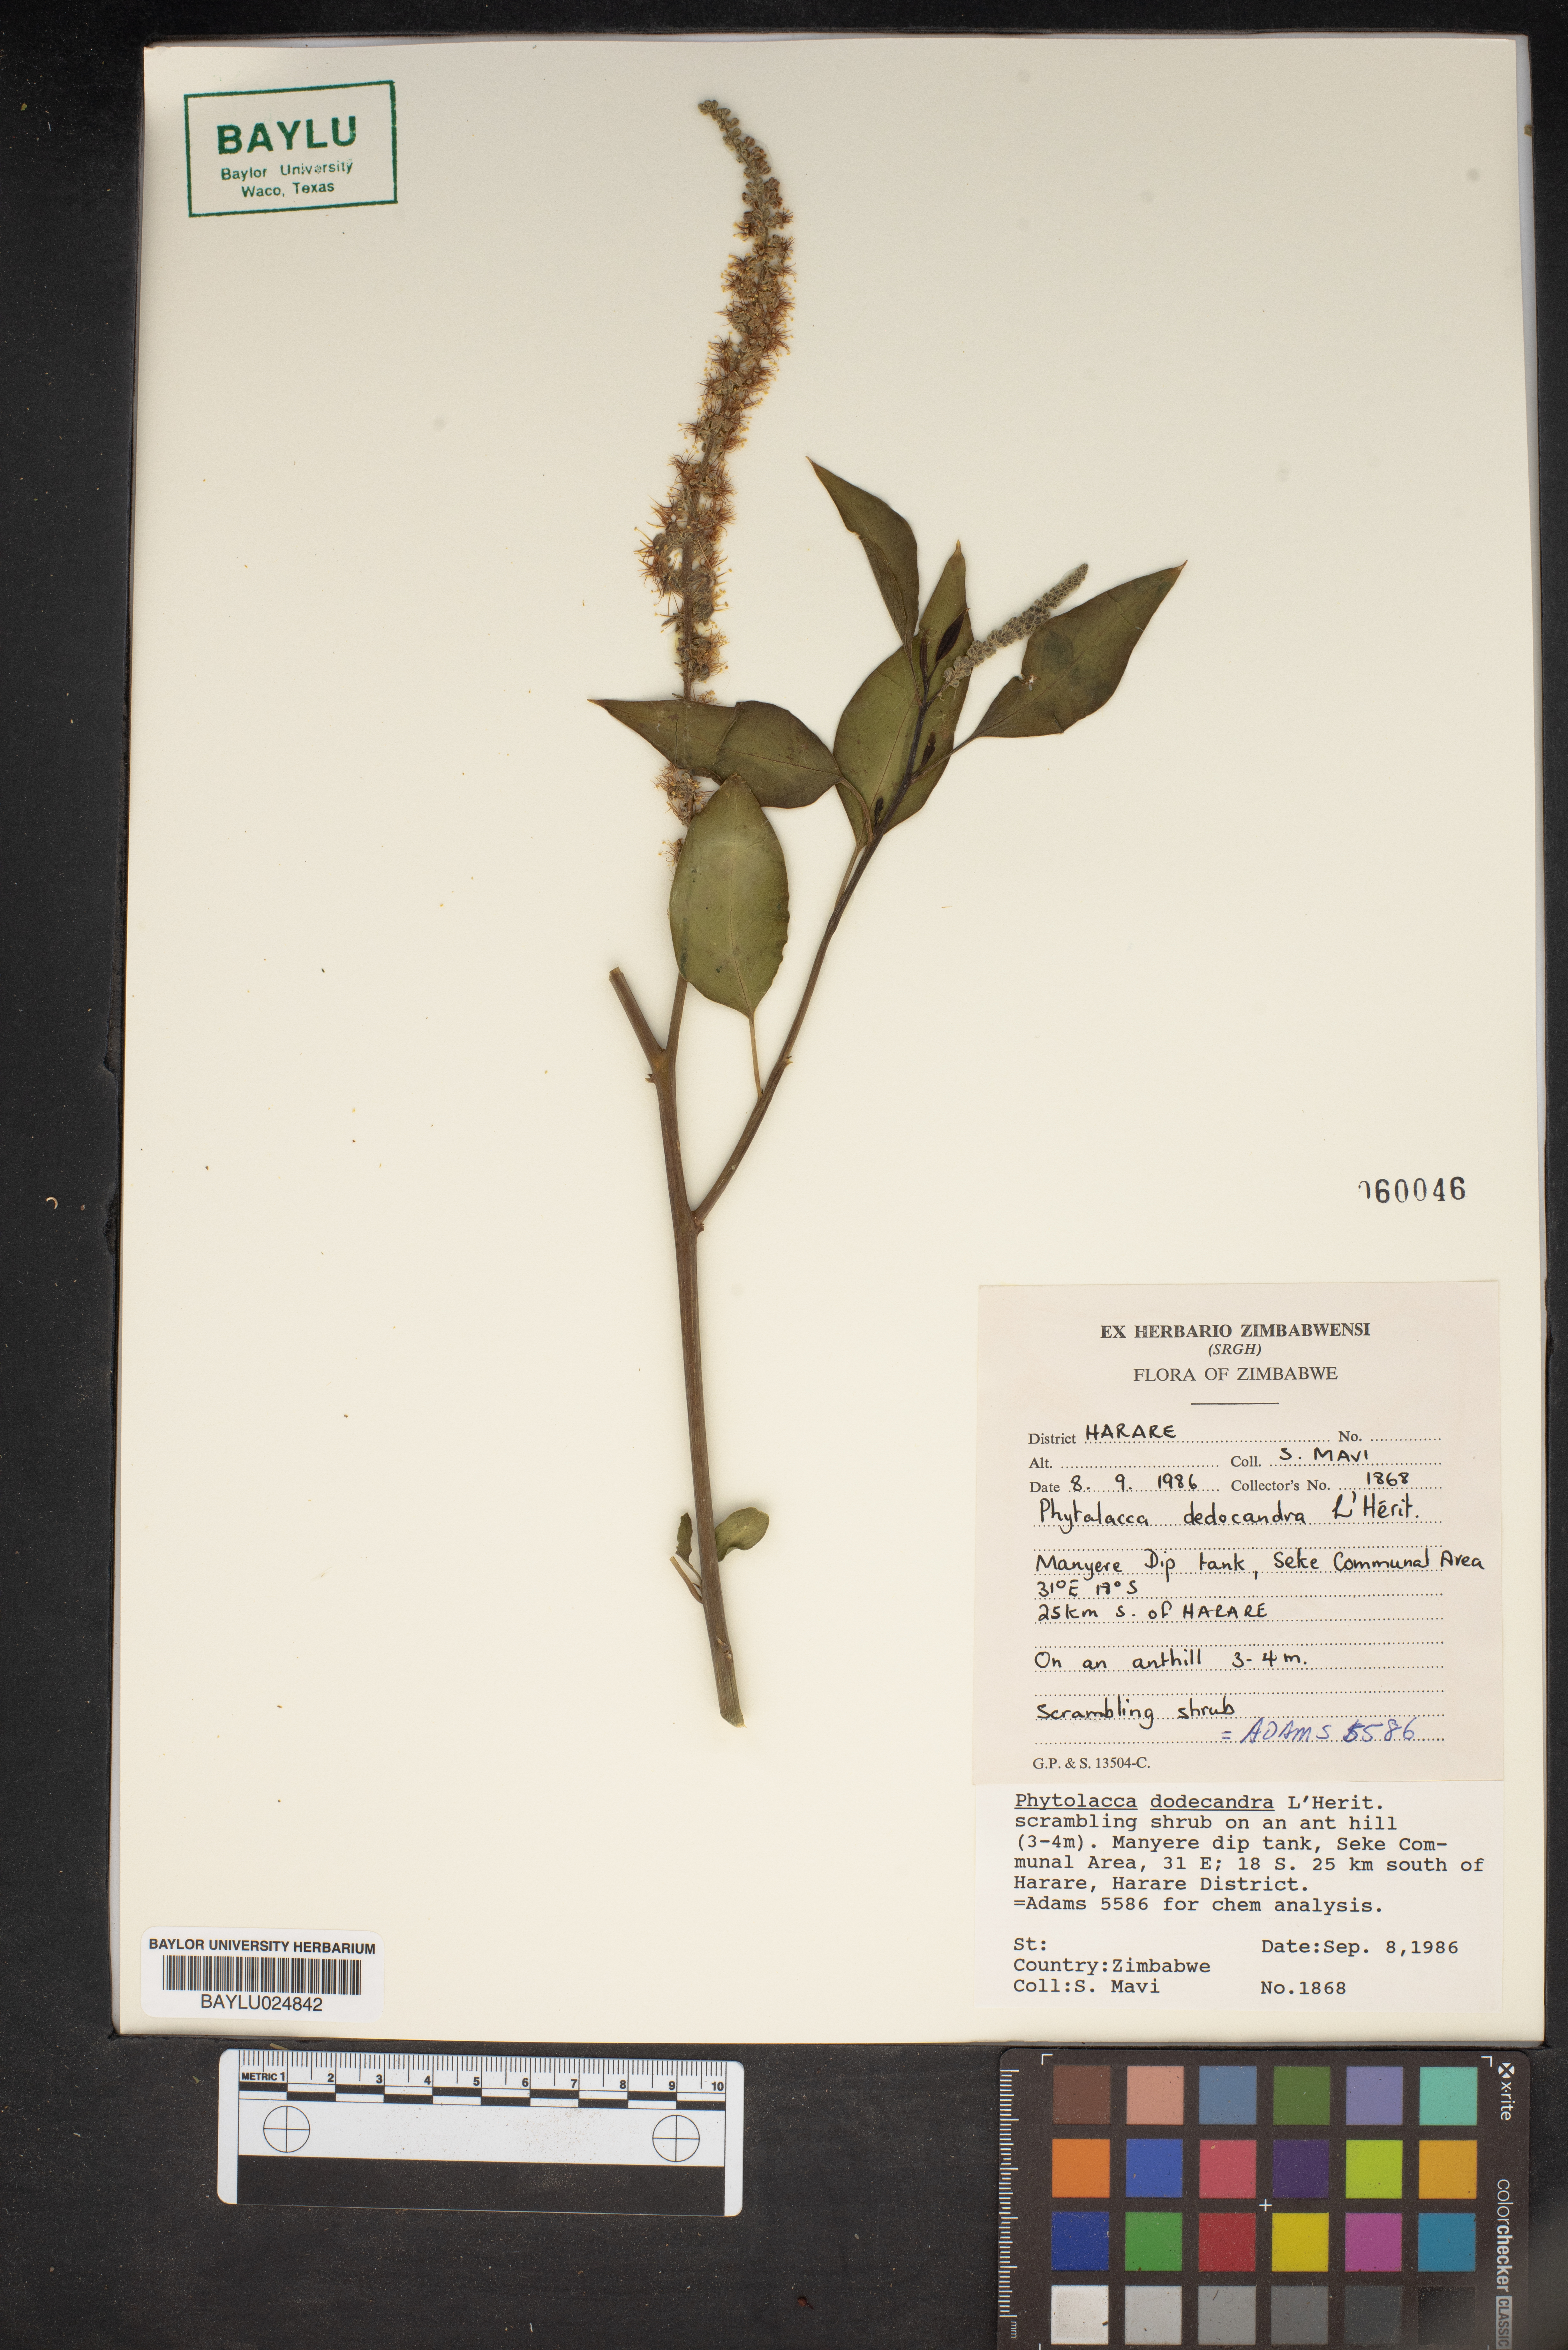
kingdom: Plantae
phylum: Tracheophyta
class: Magnoliopsida
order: Caryophyllales
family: Phytolaccaceae
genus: Phytolacca
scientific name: Phytolacca dodecandra
